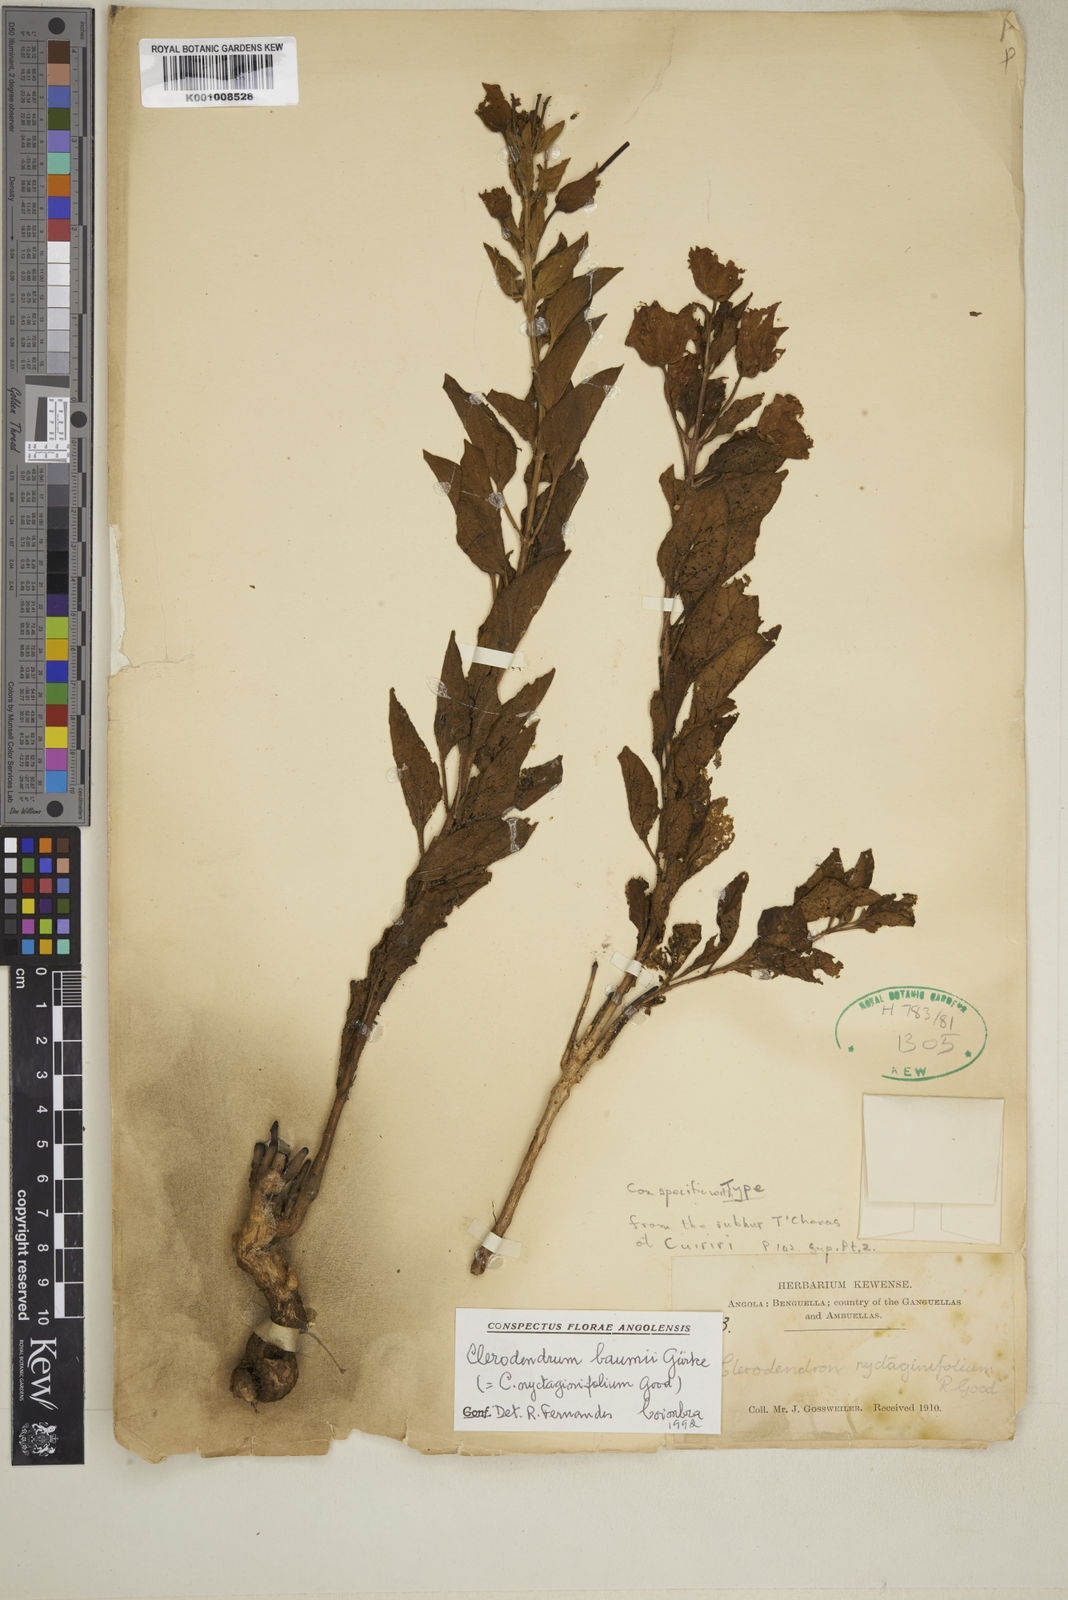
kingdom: Plantae
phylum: Tracheophyta
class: Magnoliopsida
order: Lamiales
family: Lamiaceae
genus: Clerodendrum
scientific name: Clerodendrum
